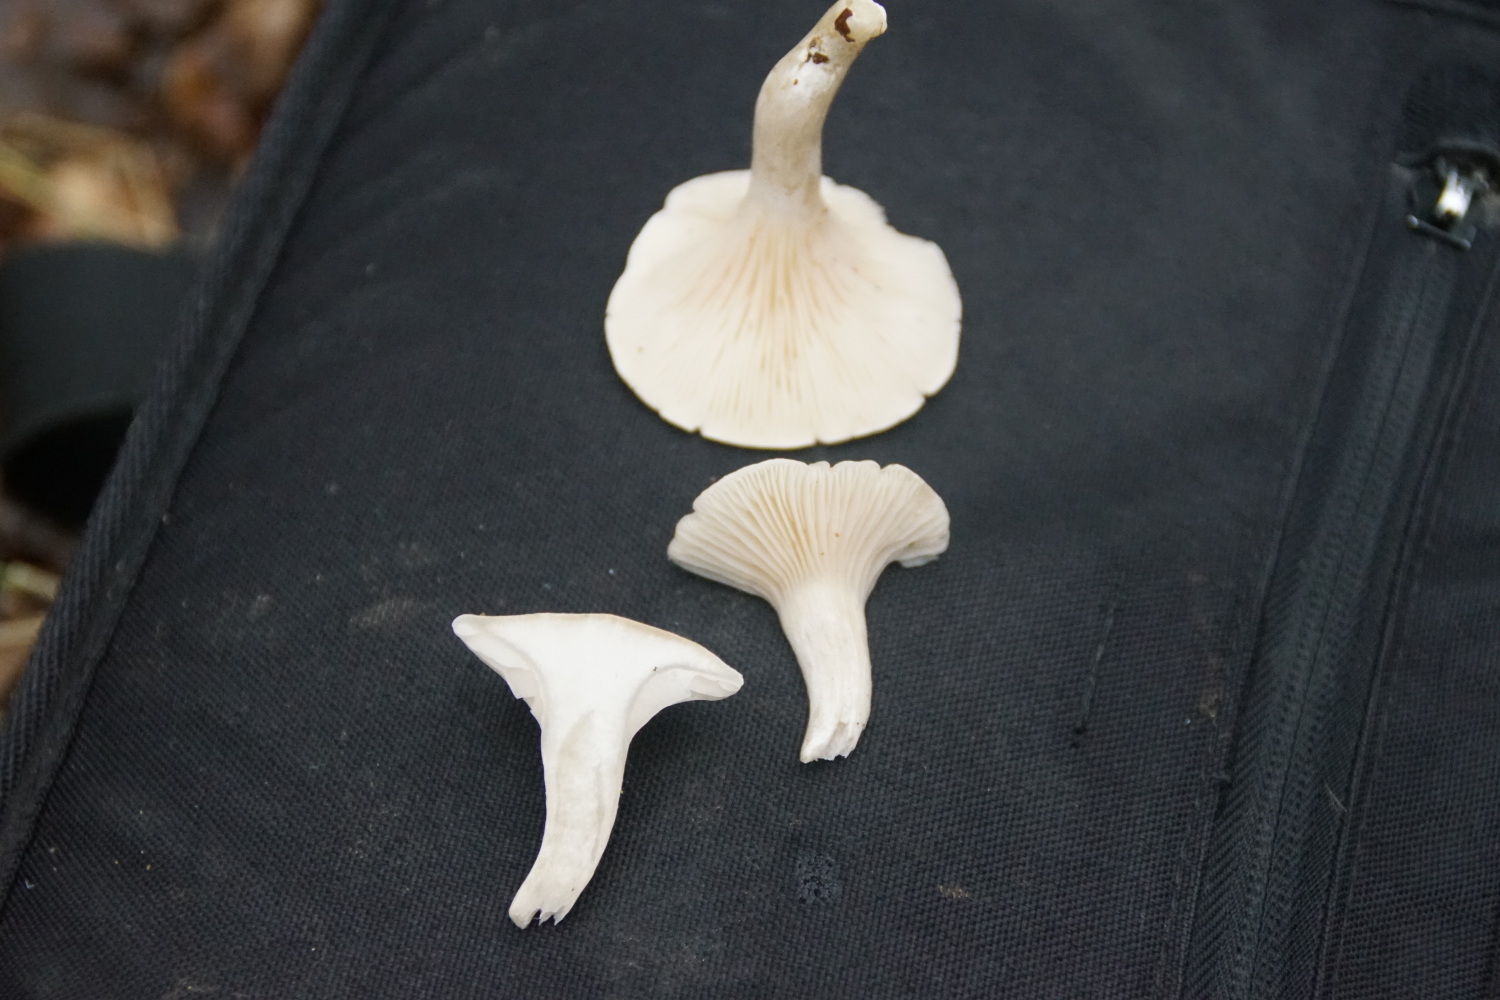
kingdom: Fungi
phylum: Basidiomycota
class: Agaricomycetes
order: Agaricales
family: Entolomataceae
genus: Clitopilus
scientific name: Clitopilus prunulus
